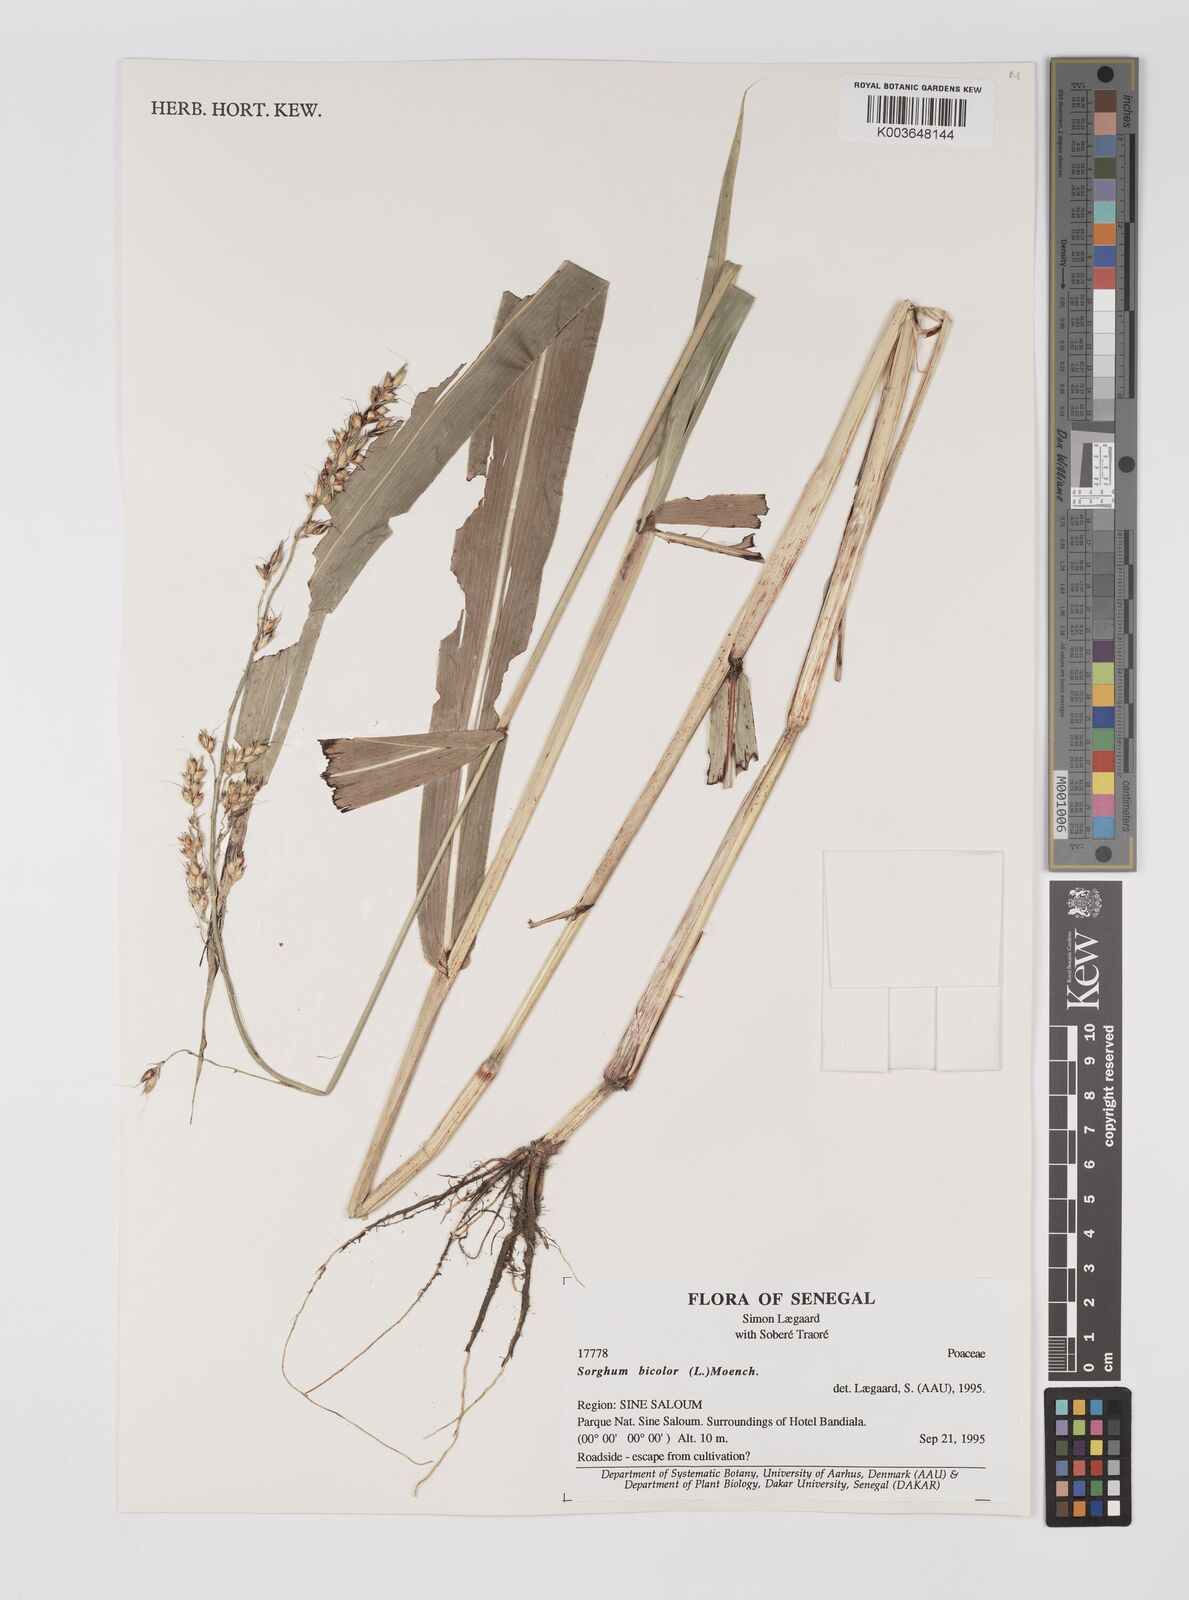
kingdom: Plantae
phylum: Tracheophyta
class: Liliopsida
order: Poales
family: Poaceae
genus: Sorghum
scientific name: Sorghum halepense
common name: Johnson-grass
